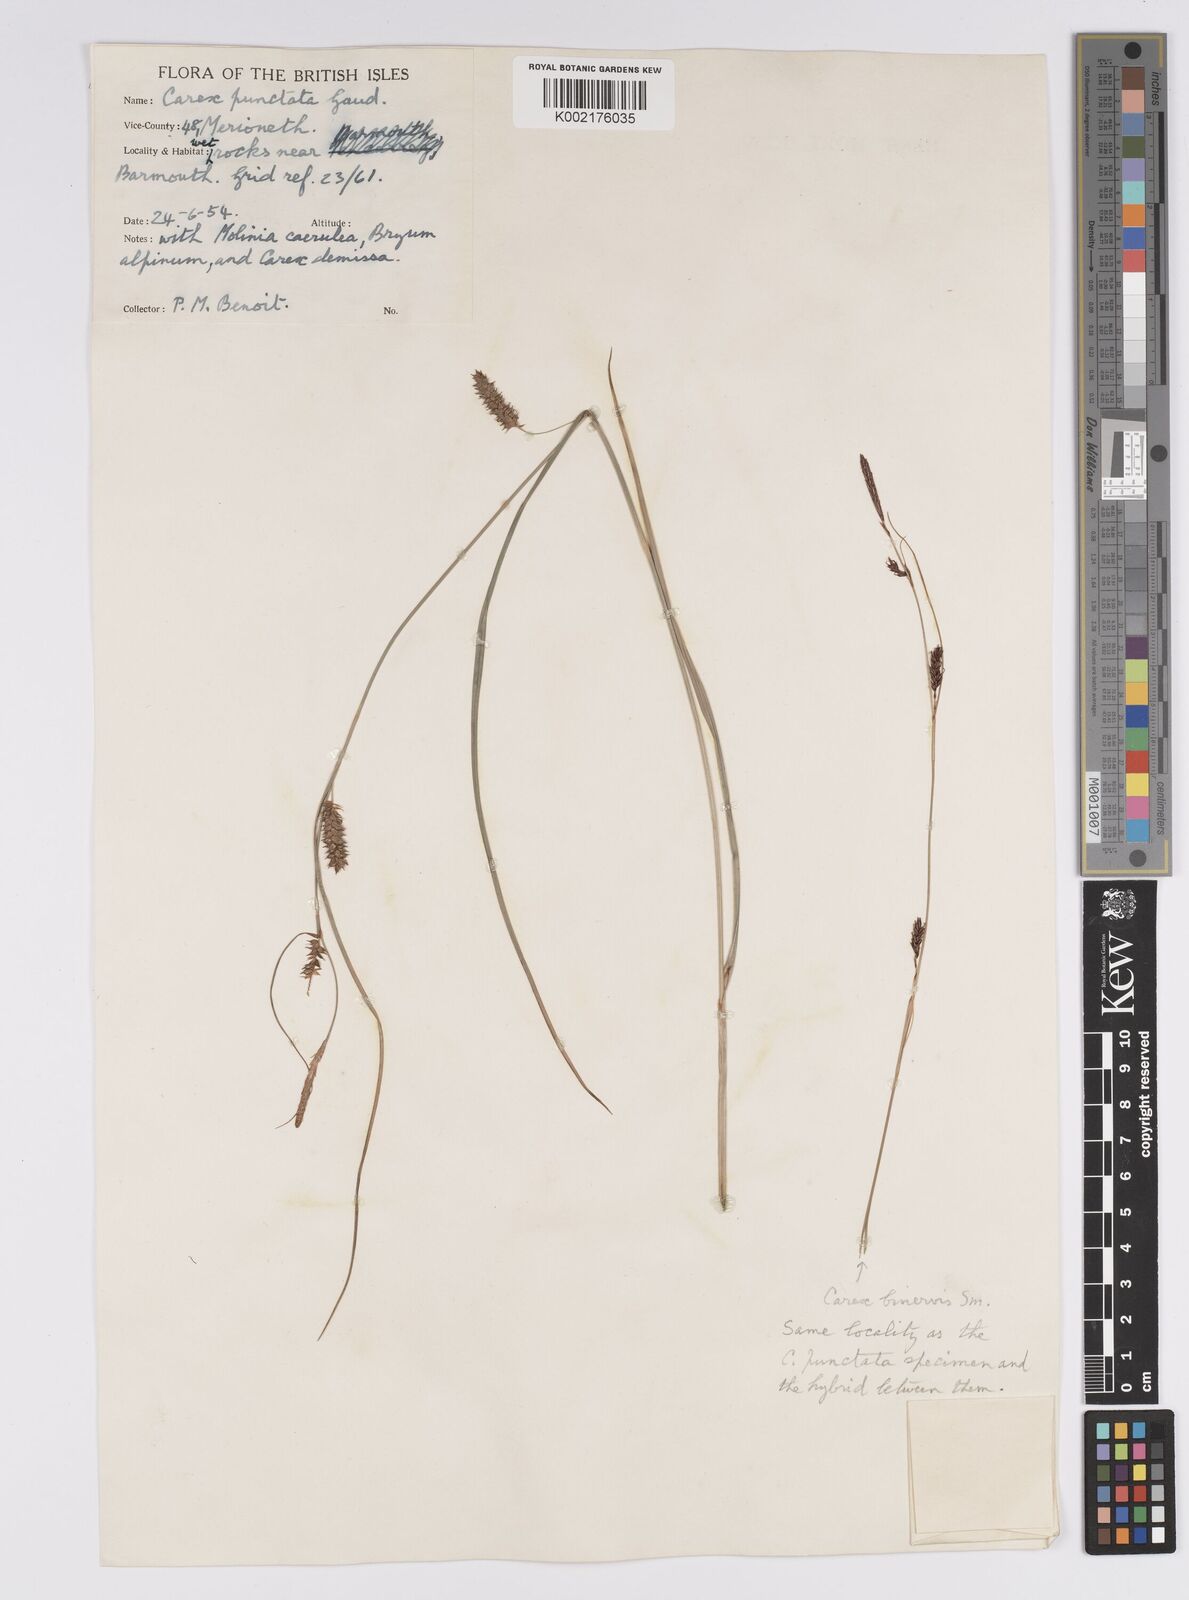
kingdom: Plantae
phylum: Tracheophyta
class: Liliopsida
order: Poales
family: Cyperaceae
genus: Carex
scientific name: Carex punctata
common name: Dotted sedge
